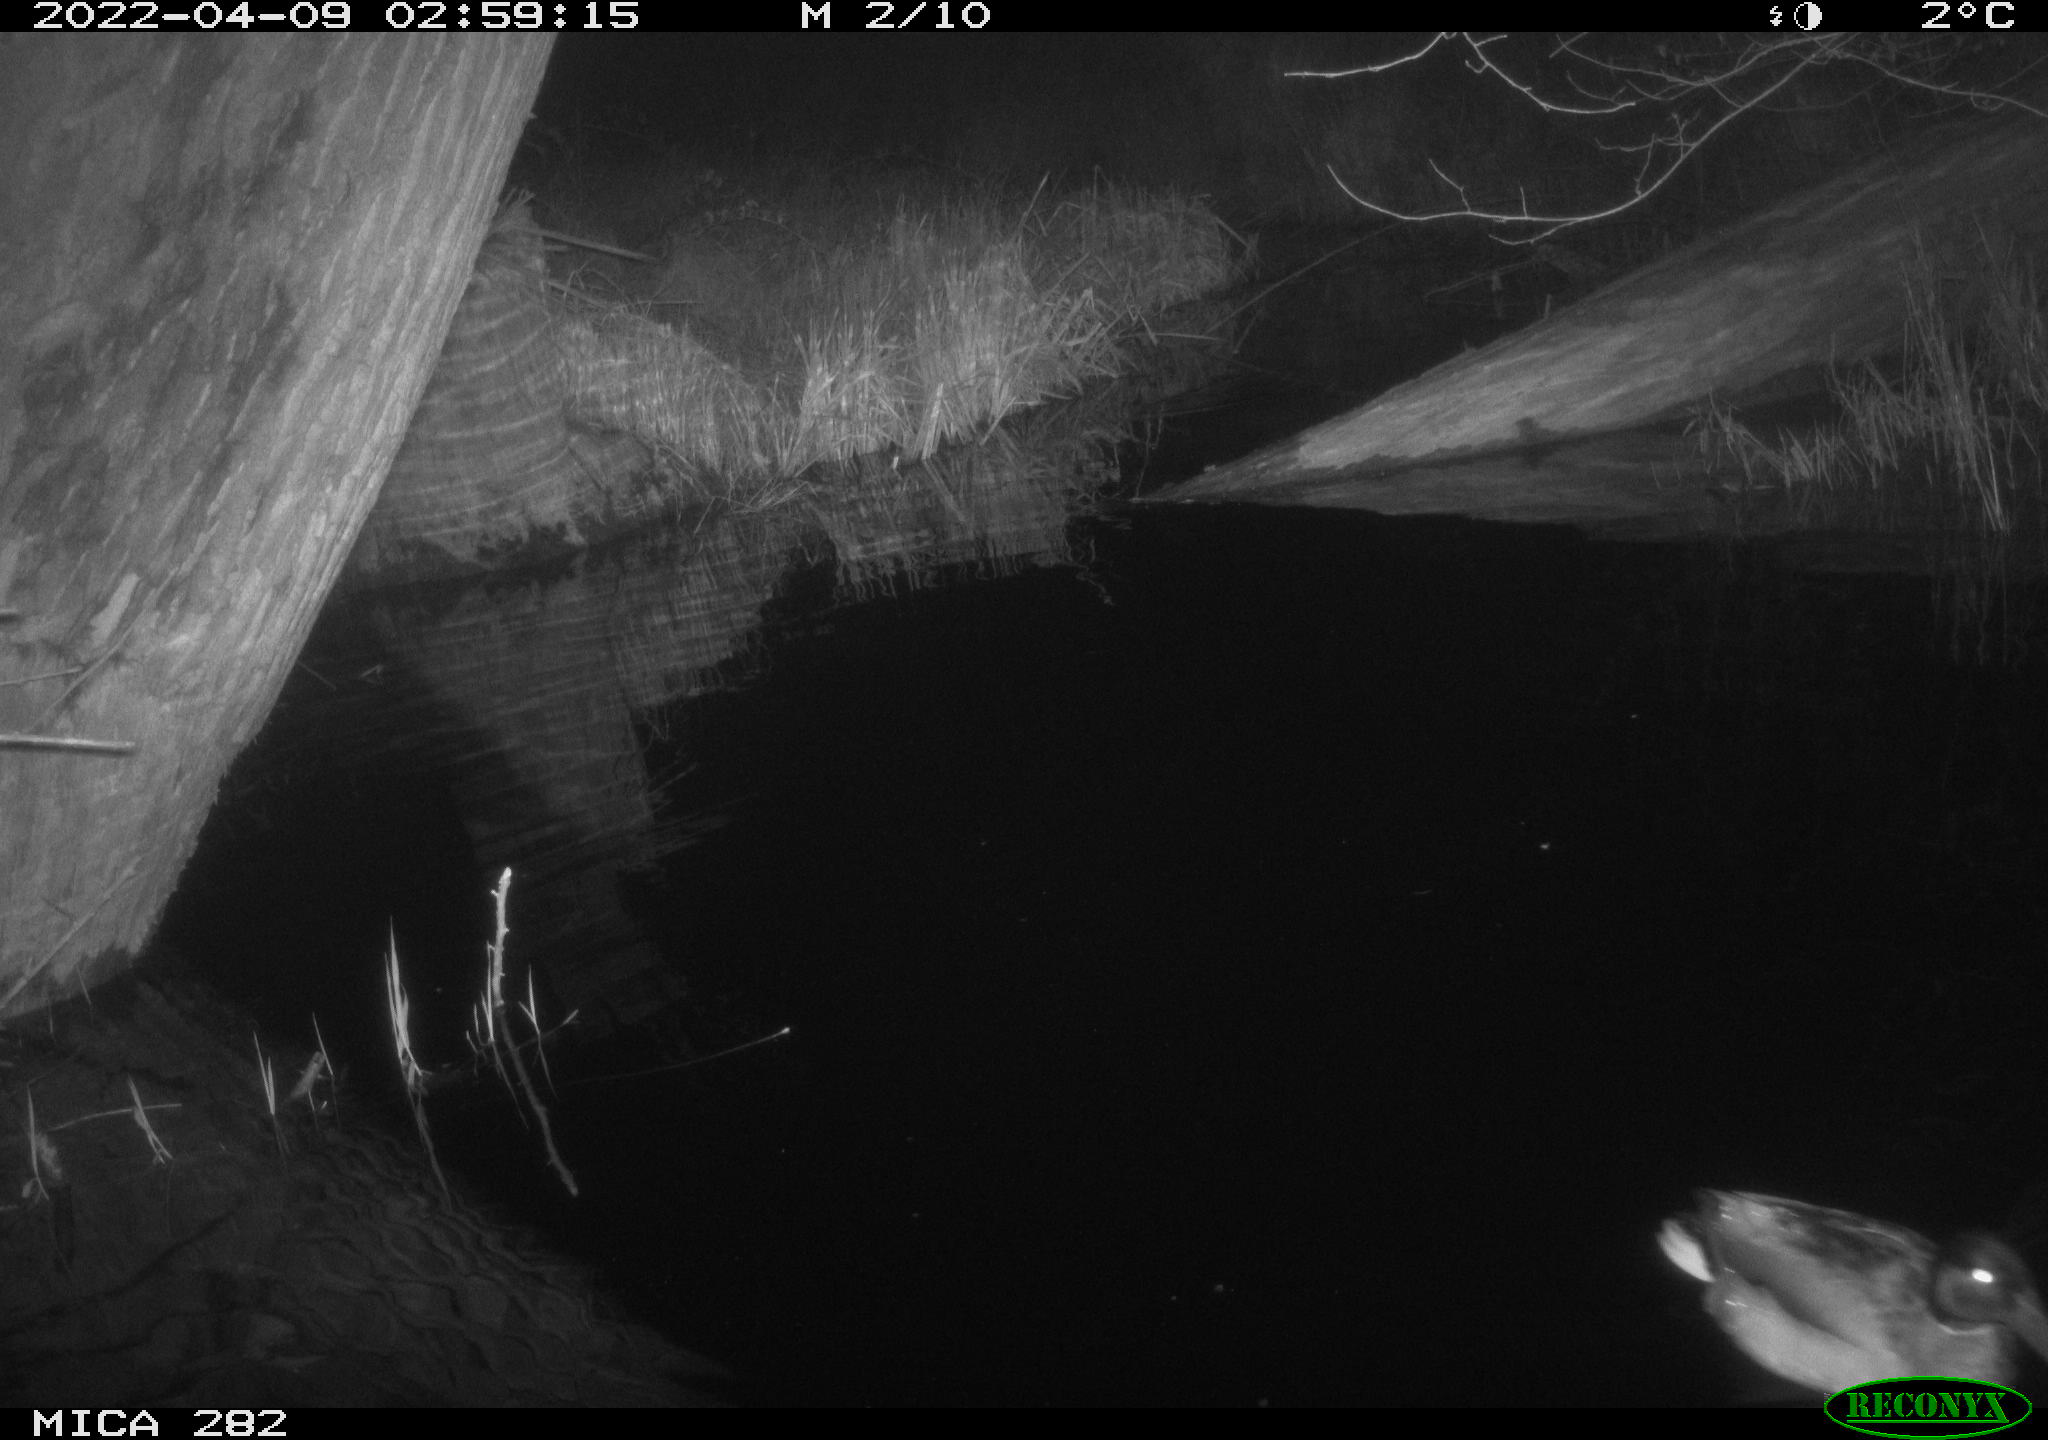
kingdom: Animalia
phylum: Chordata
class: Aves
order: Anseriformes
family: Anatidae
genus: Anas
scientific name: Anas platyrhynchos
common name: Mallard
